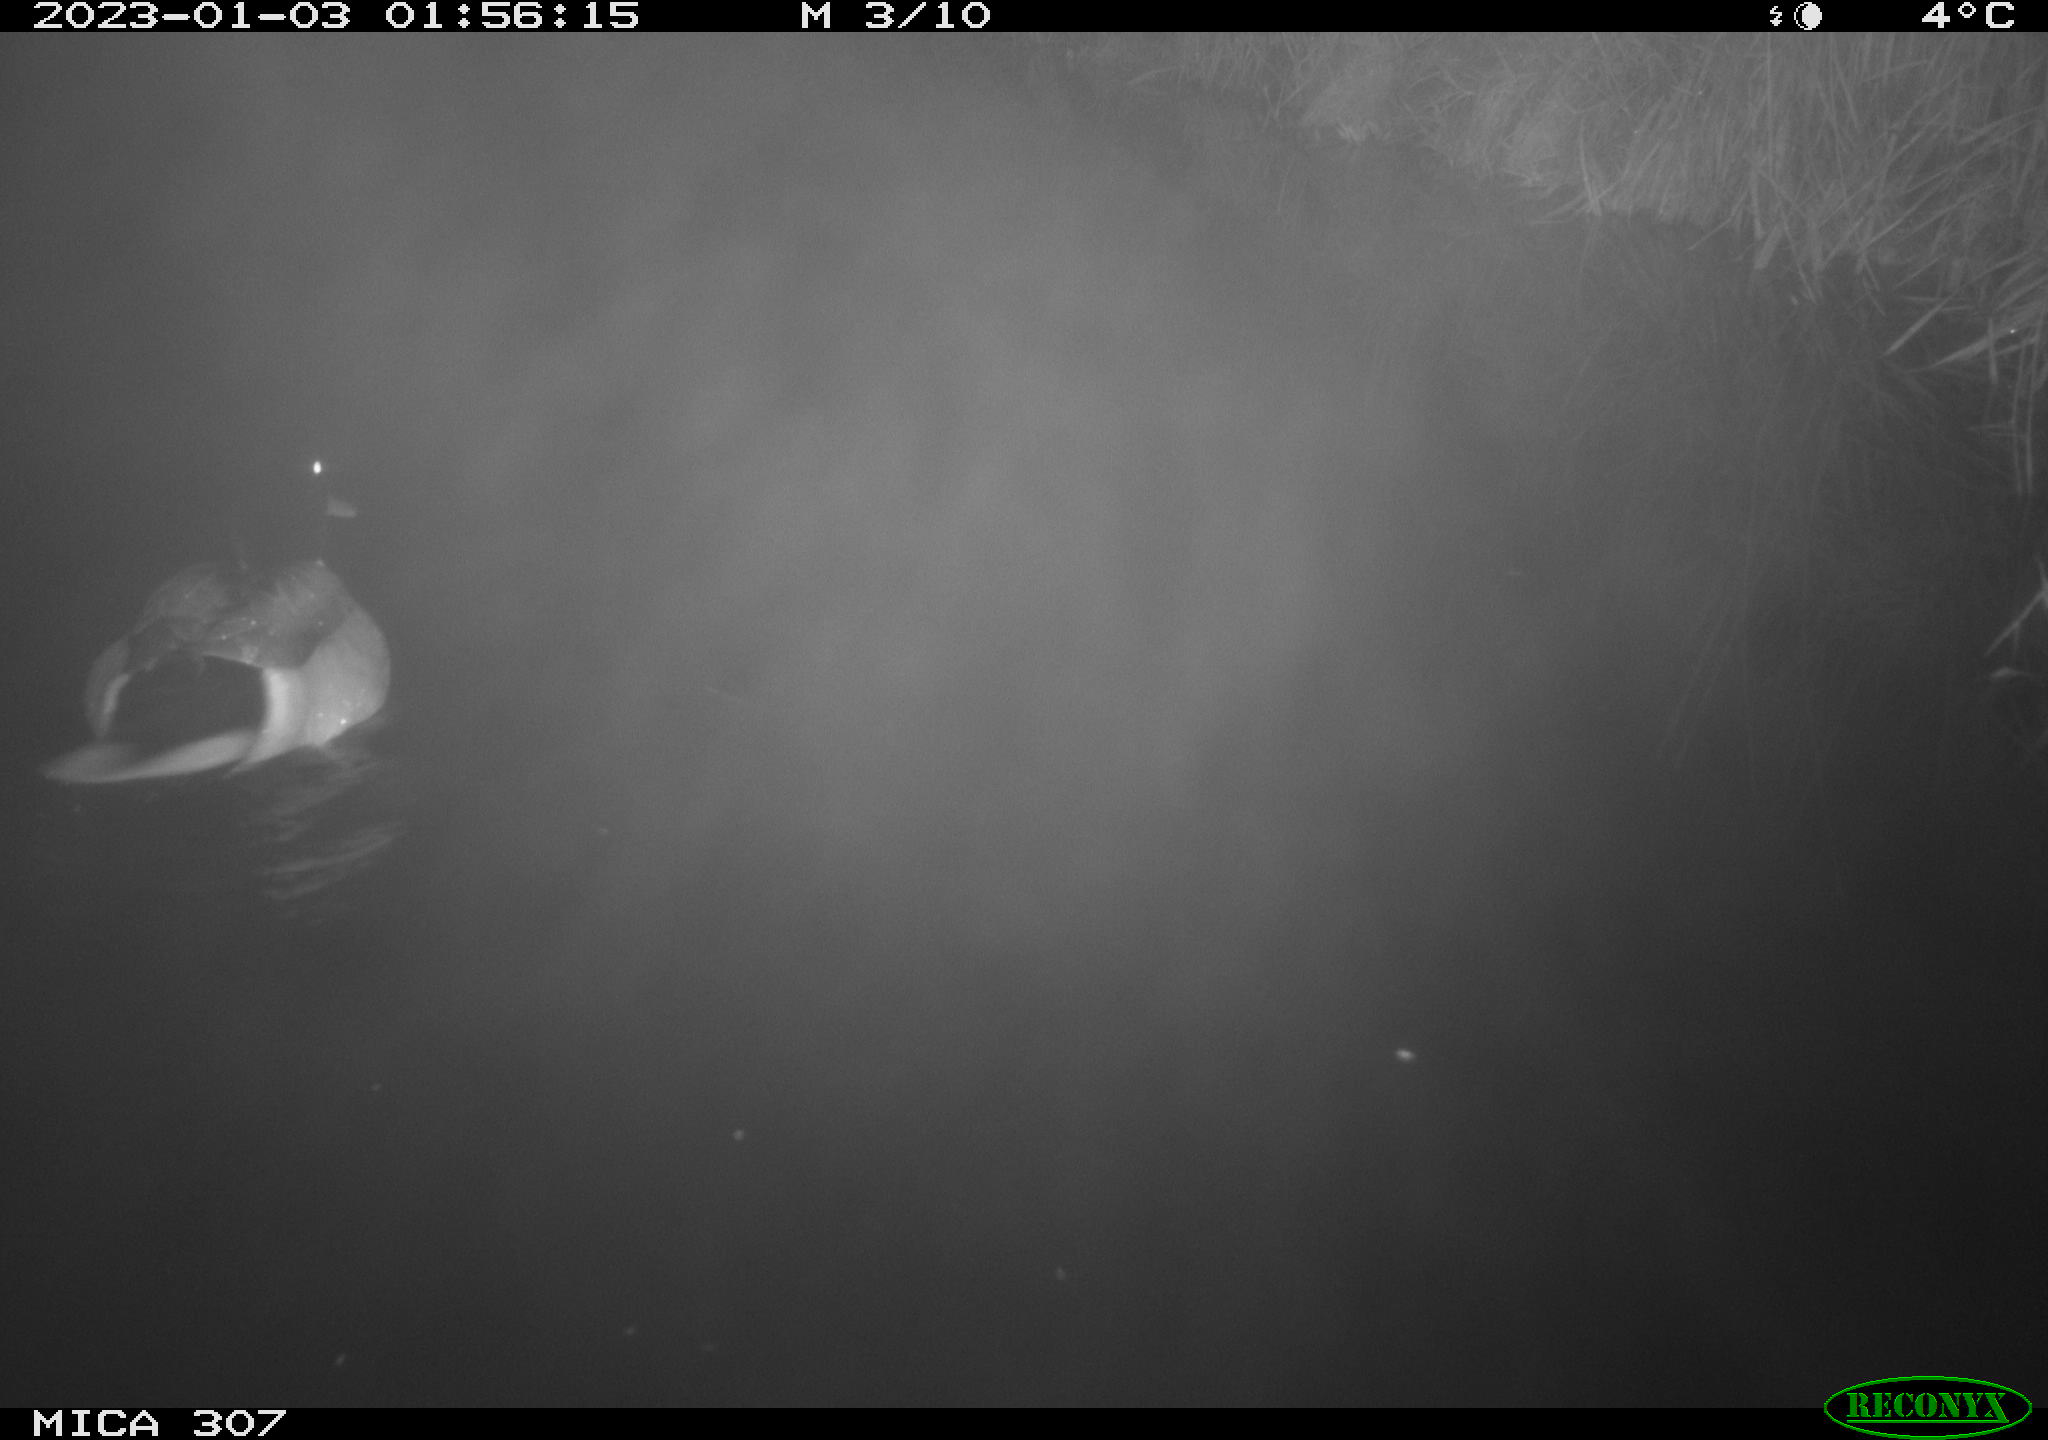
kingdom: Animalia
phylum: Chordata
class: Aves
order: Anseriformes
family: Anatidae
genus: Anas
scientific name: Anas
